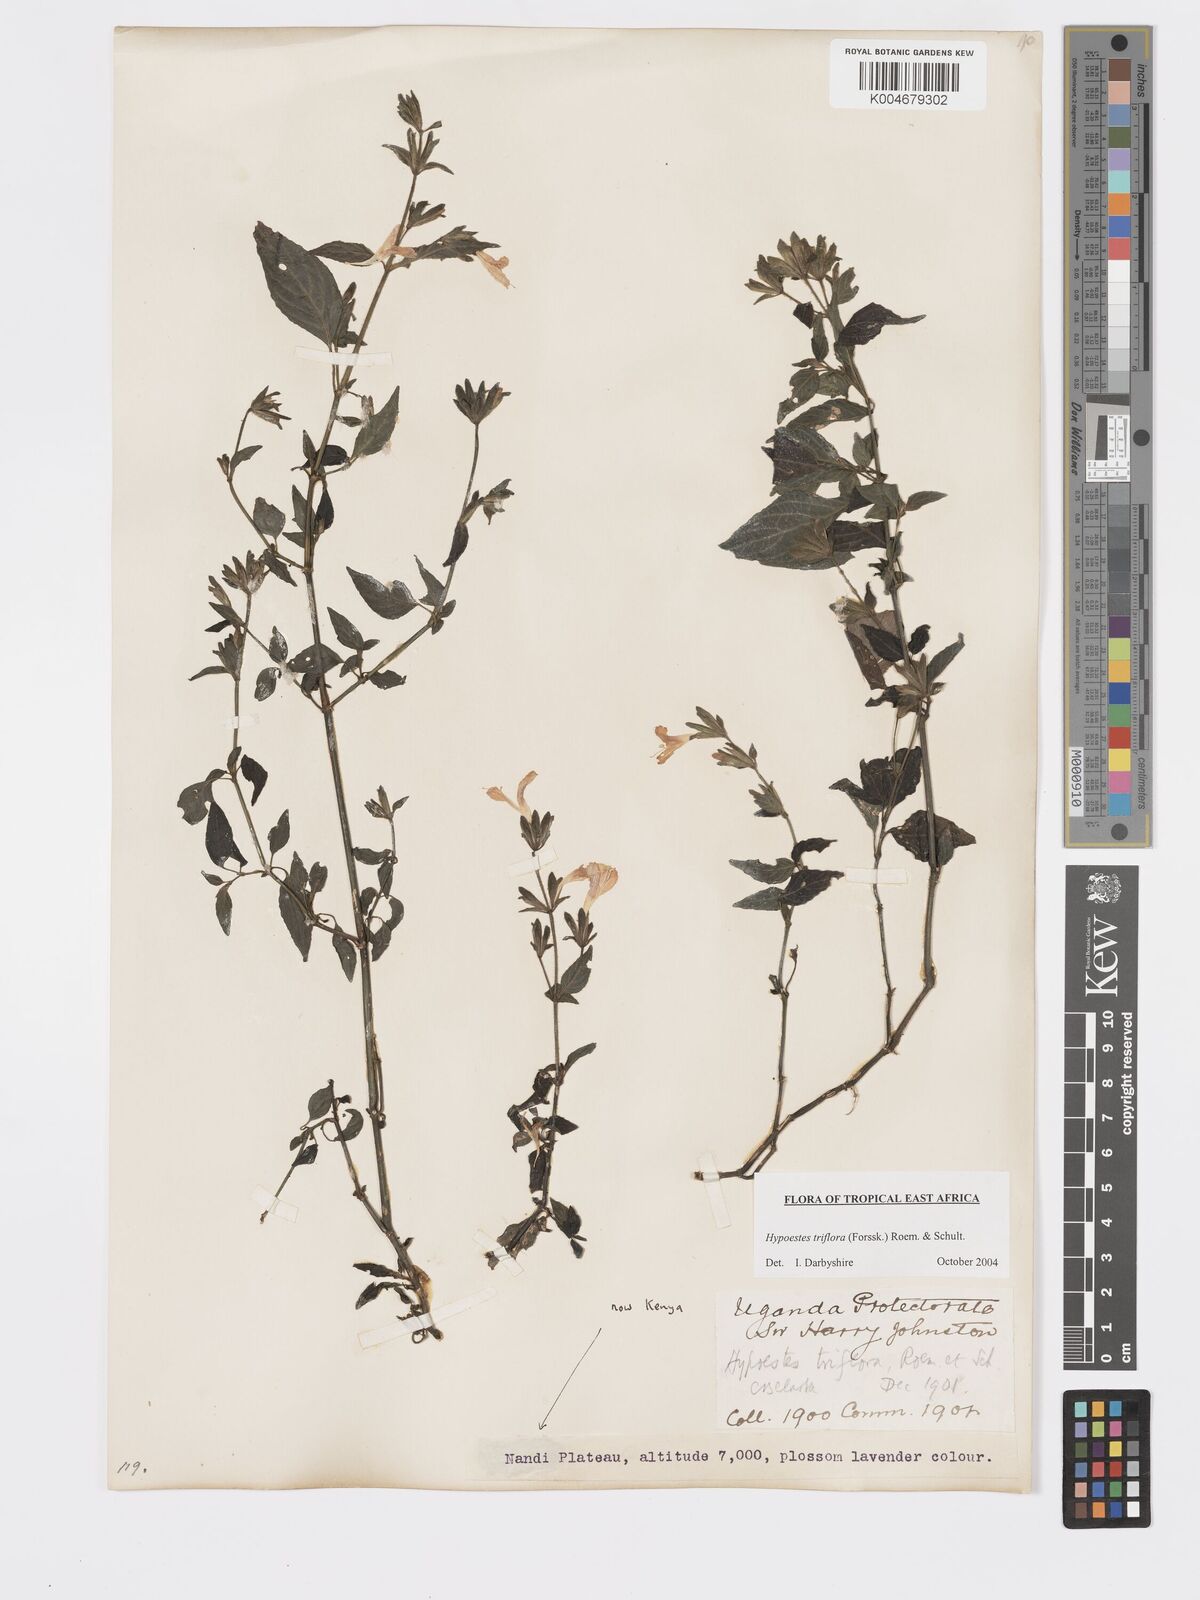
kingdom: Plantae
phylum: Tracheophyta
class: Magnoliopsida
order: Lamiales
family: Acanthaceae
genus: Hypoestes
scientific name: Hypoestes triflora
